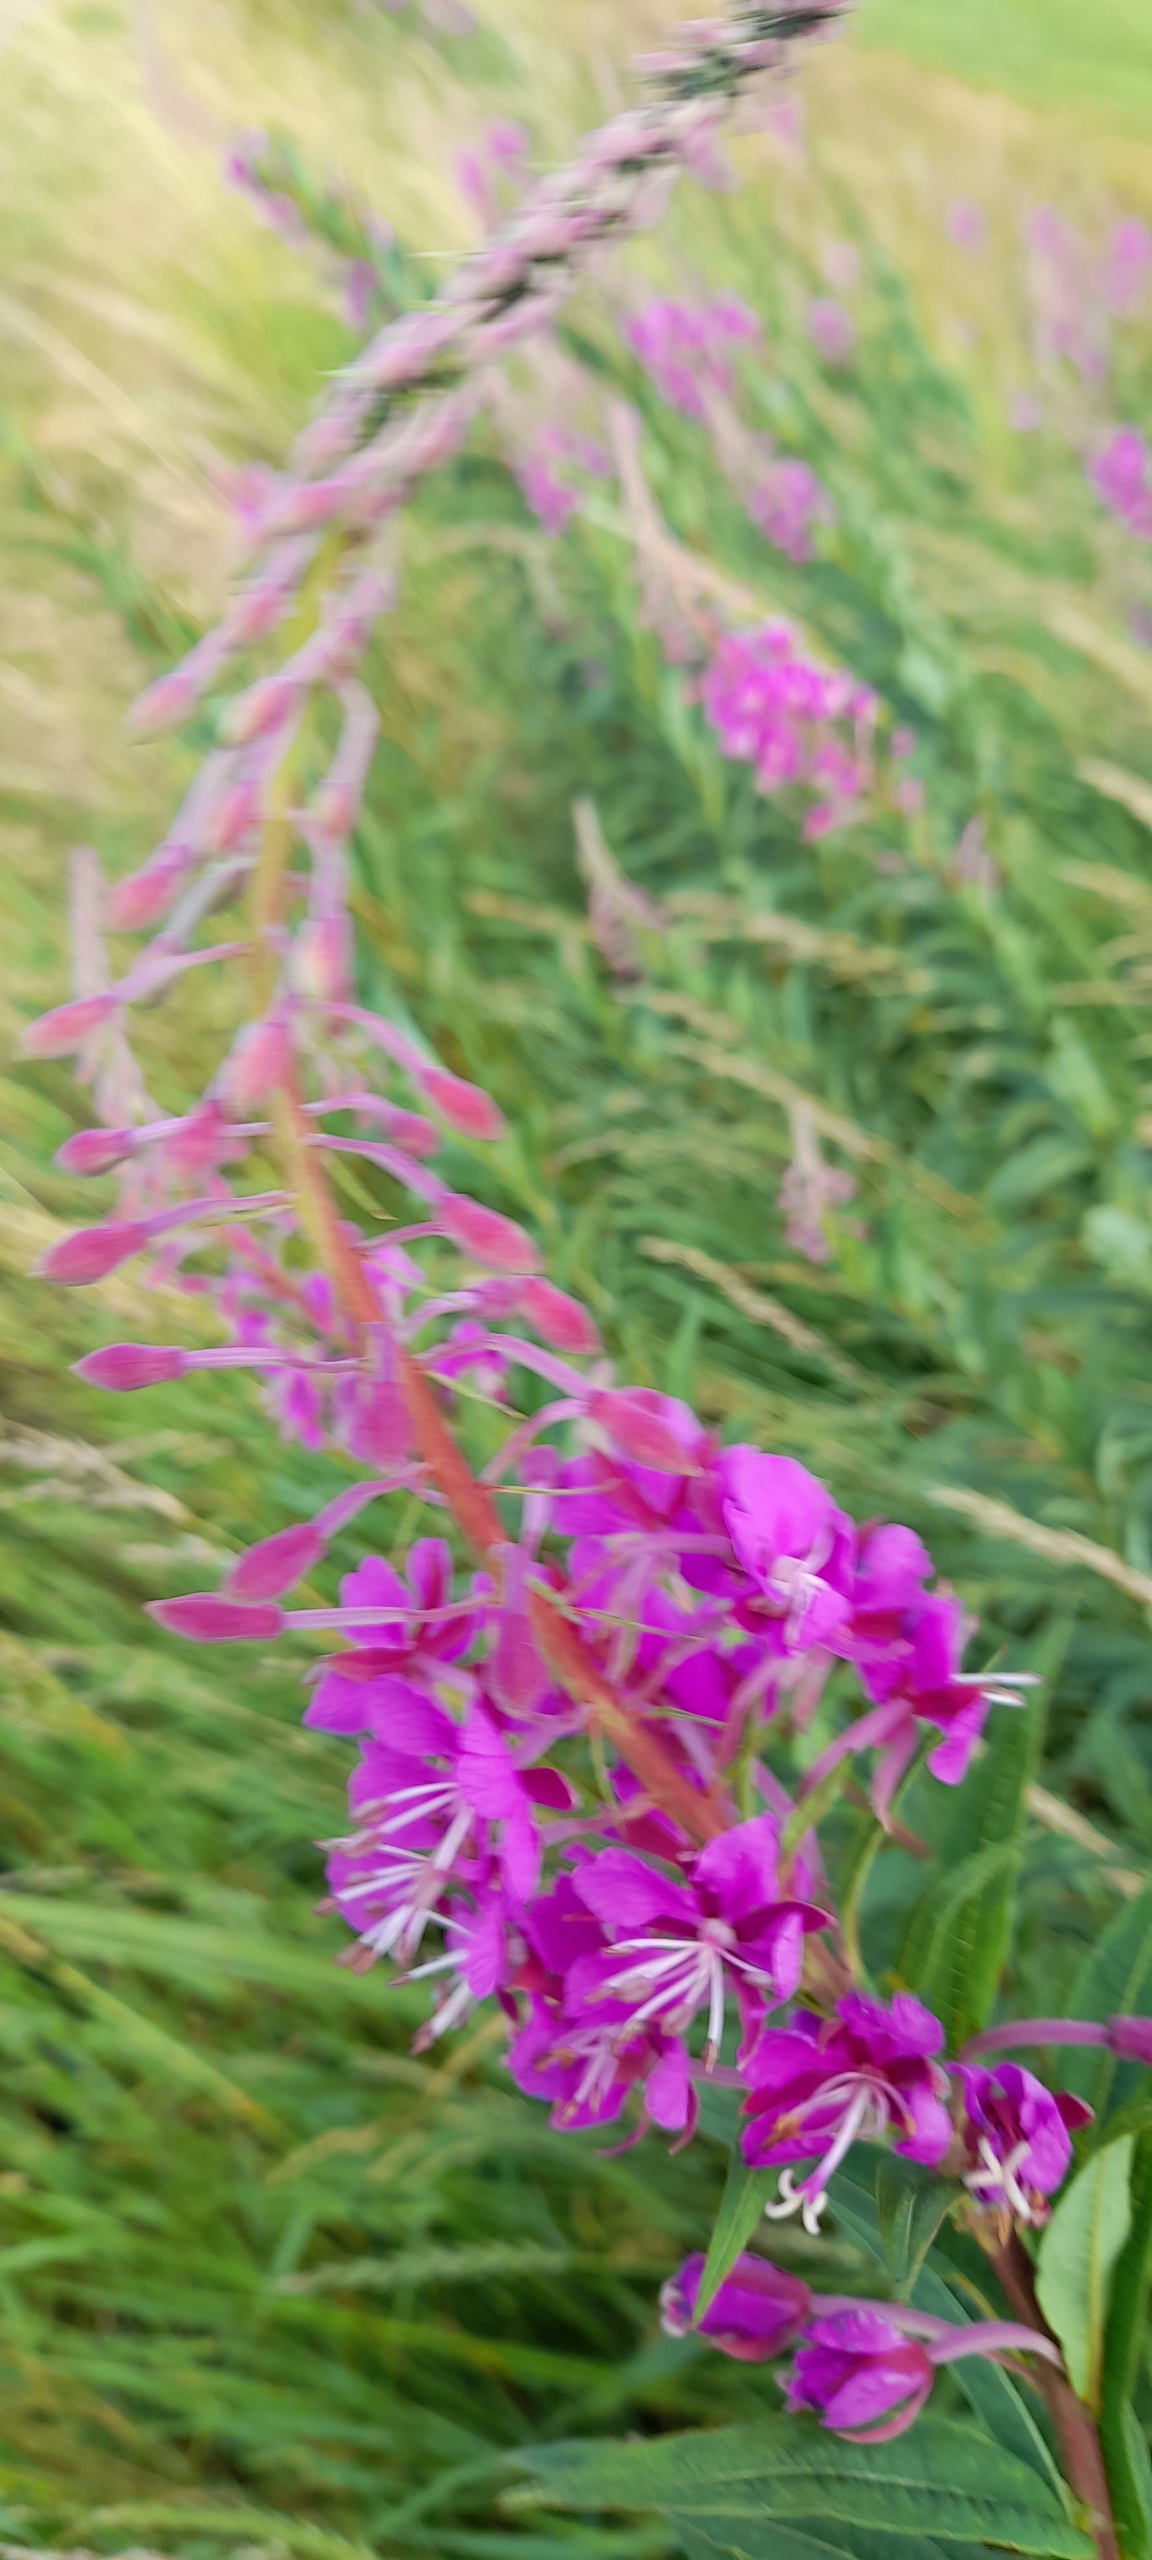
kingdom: Plantae
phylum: Tracheophyta
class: Magnoliopsida
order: Myrtales
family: Onagraceae
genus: Chamaenerion
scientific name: Chamaenerion angustifolium
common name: Gederams
